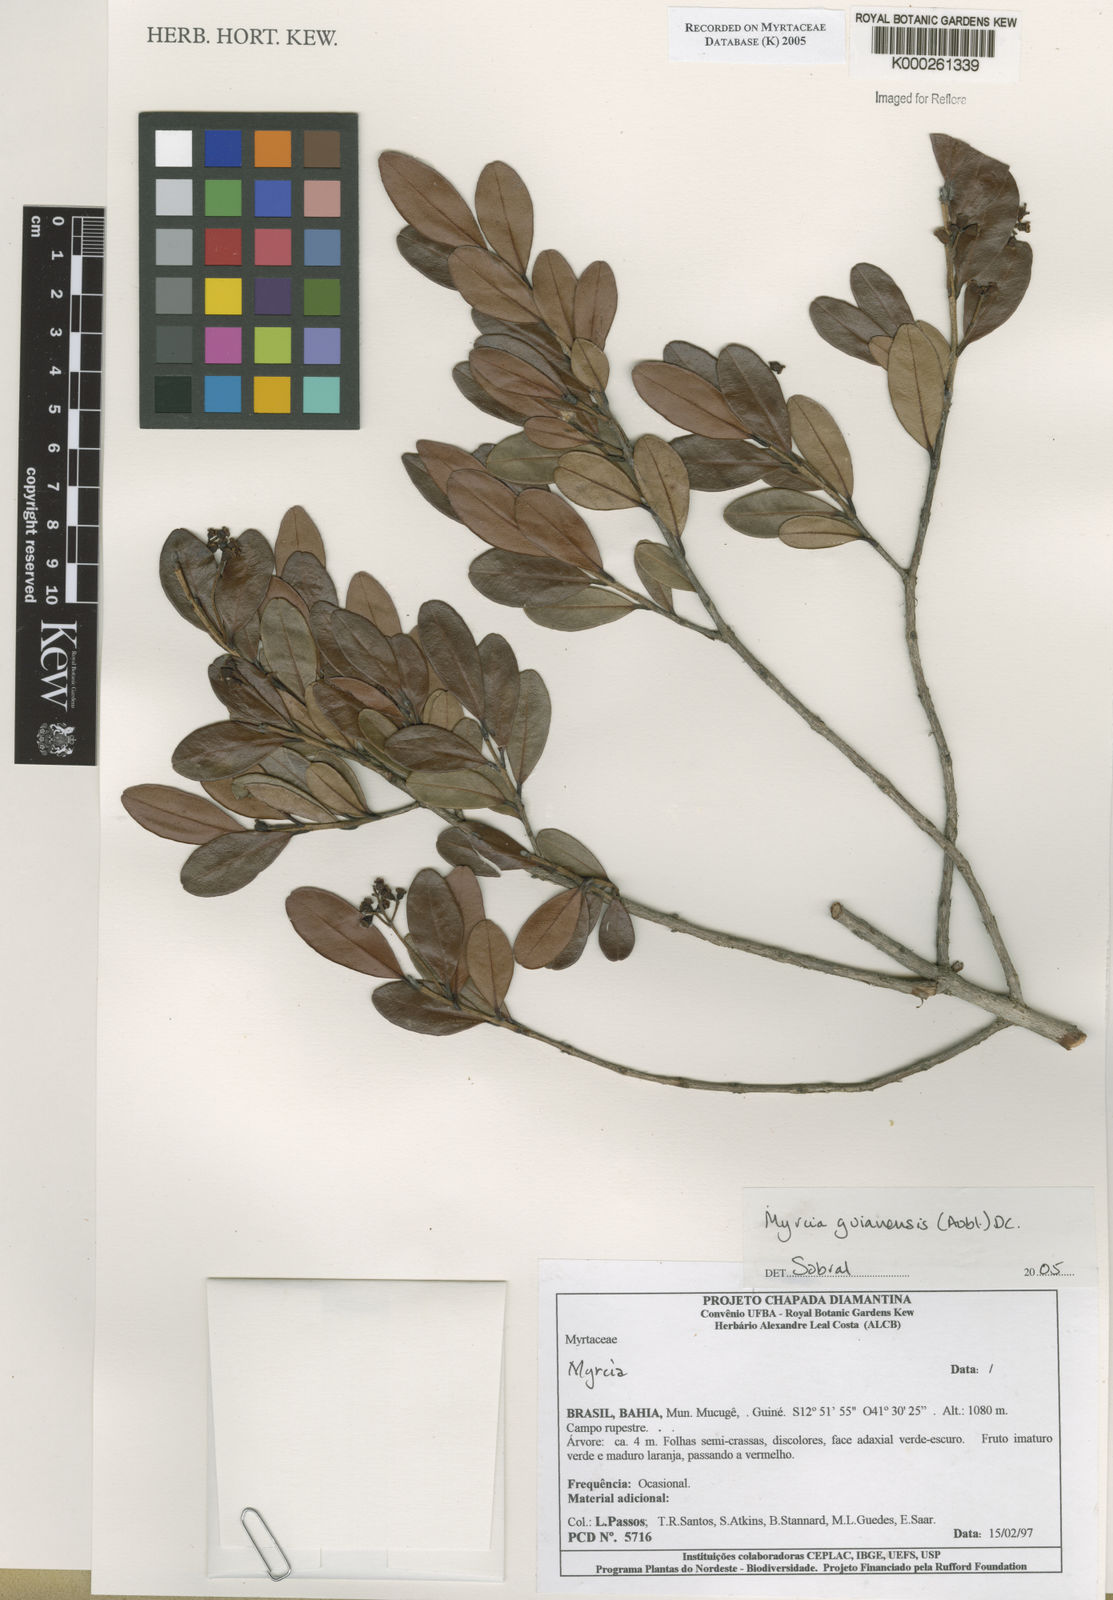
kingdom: Plantae
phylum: Tracheophyta
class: Magnoliopsida
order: Myrtales
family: Myrtaceae
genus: Myrcia
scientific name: Myrcia guianensis
